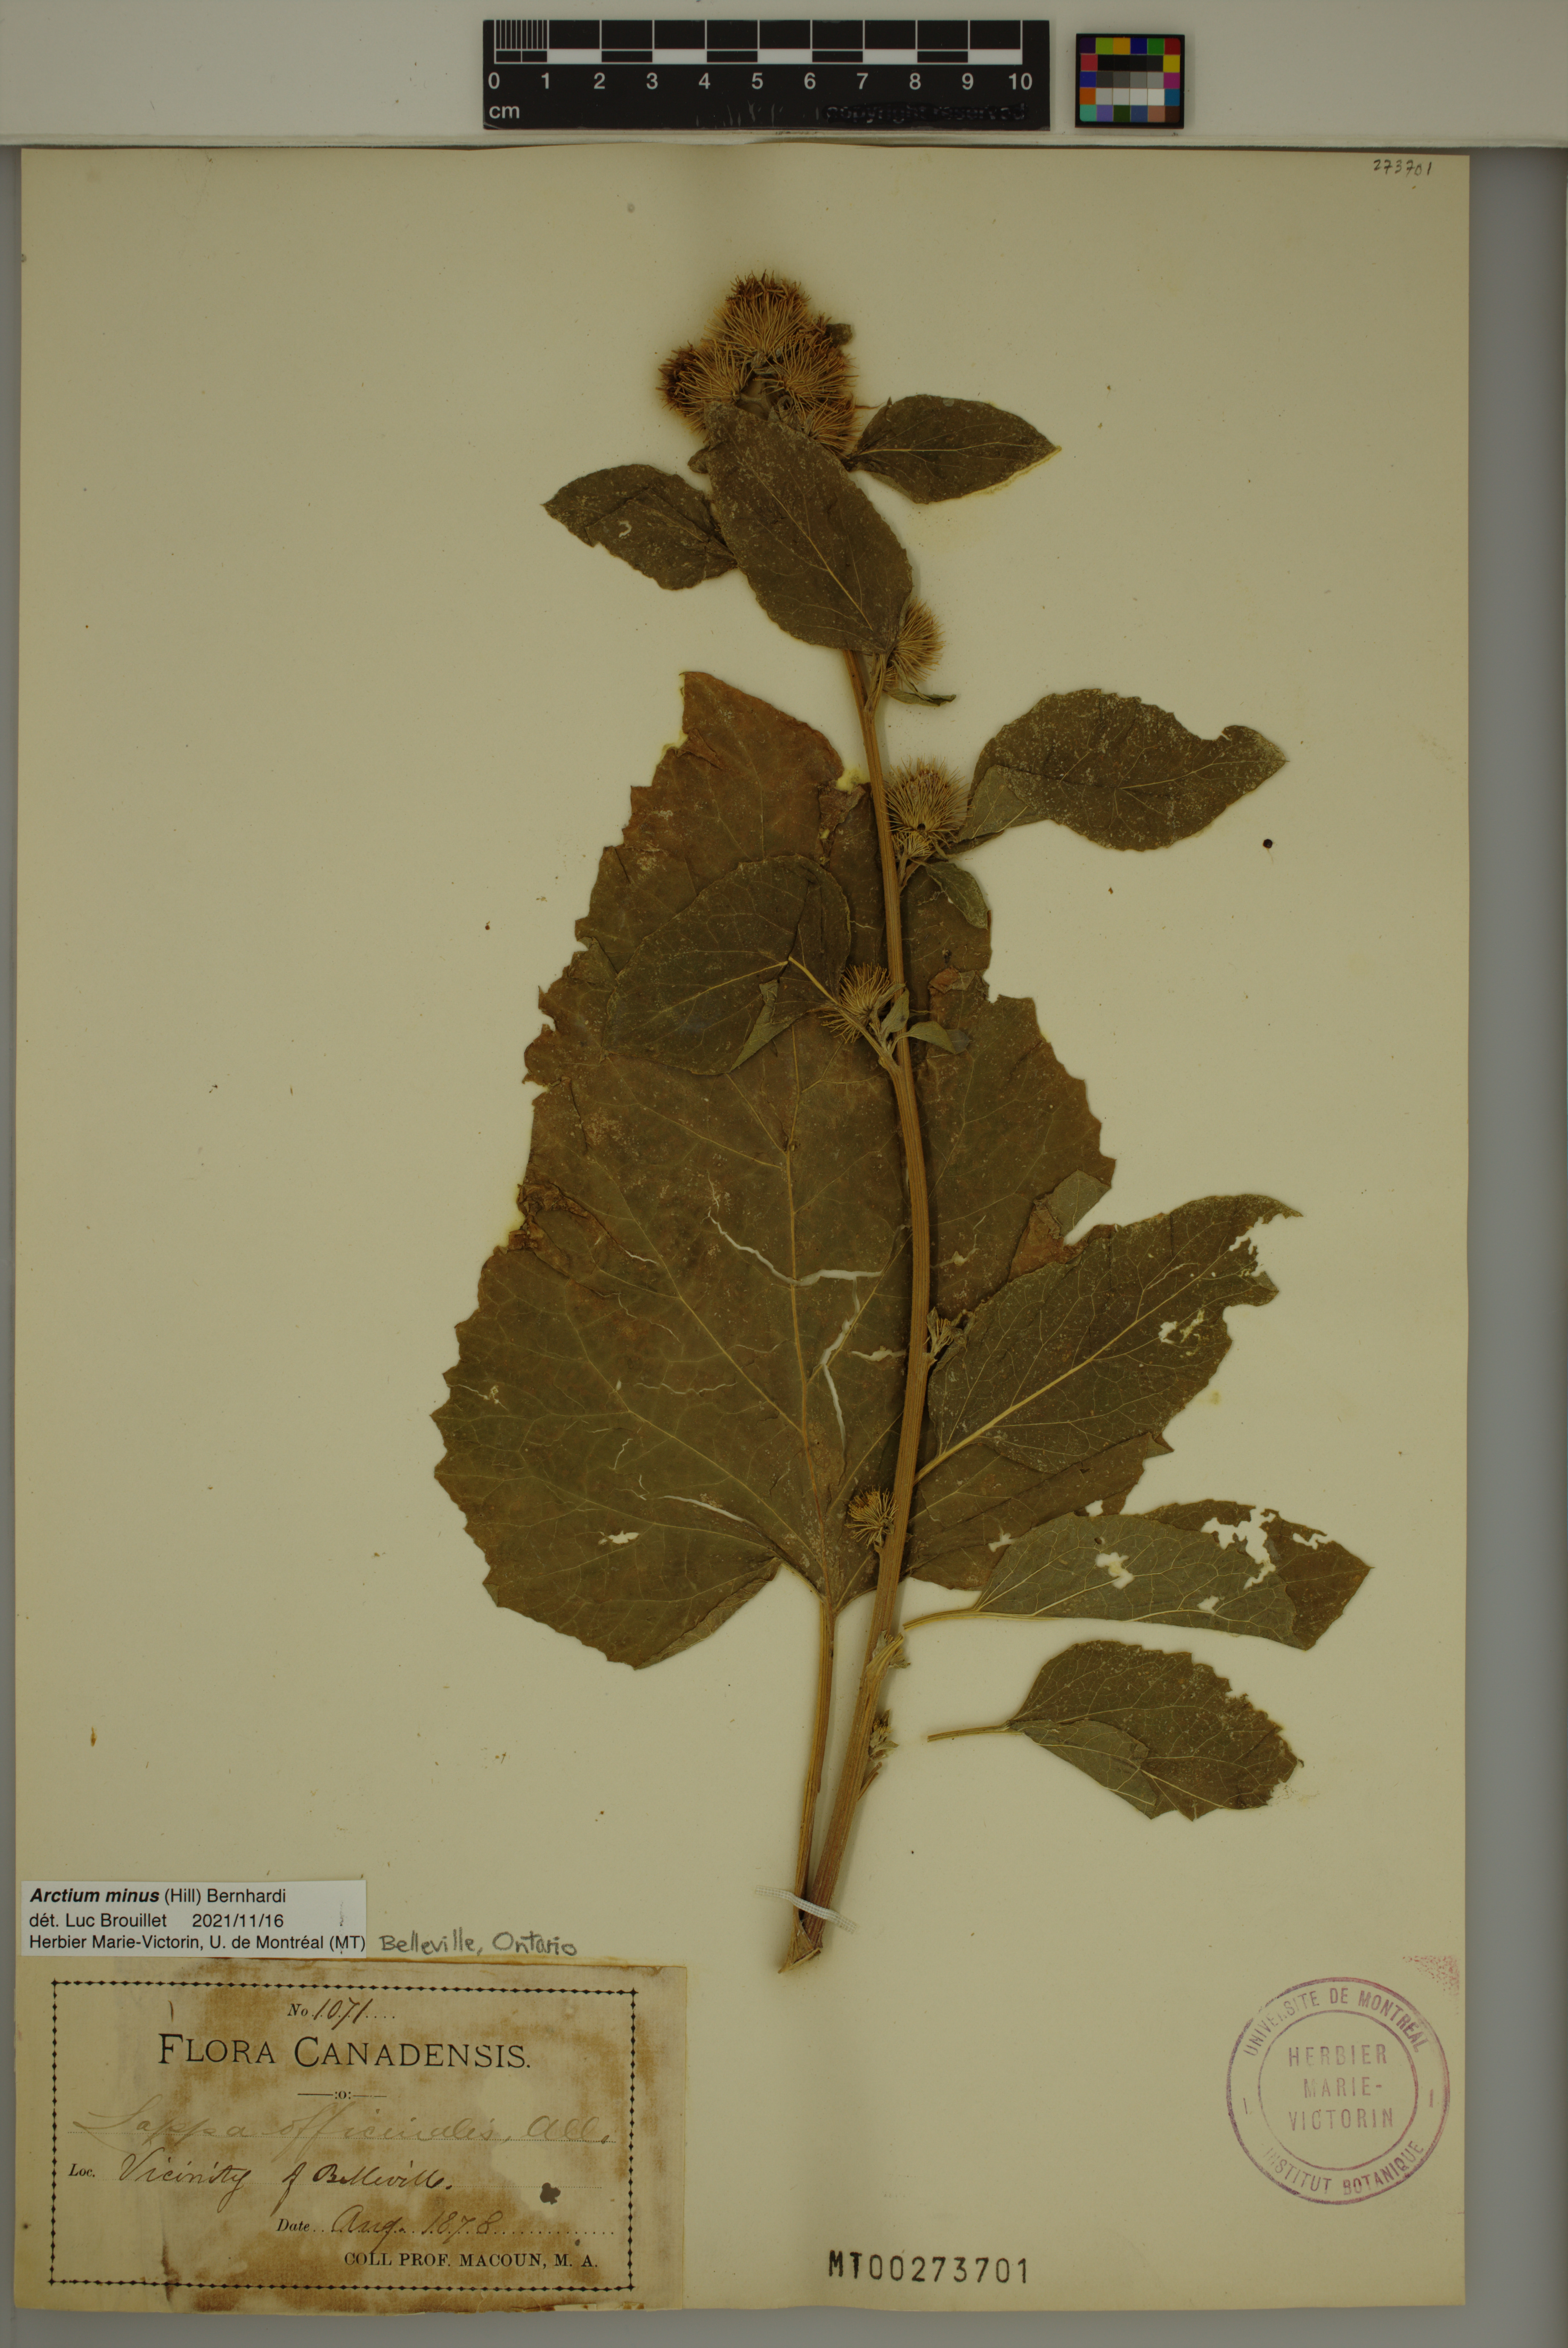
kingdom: Plantae
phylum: Tracheophyta
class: Magnoliopsida
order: Asterales
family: Asteraceae
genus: Arctium
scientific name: Arctium minus
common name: Lesser burdock
